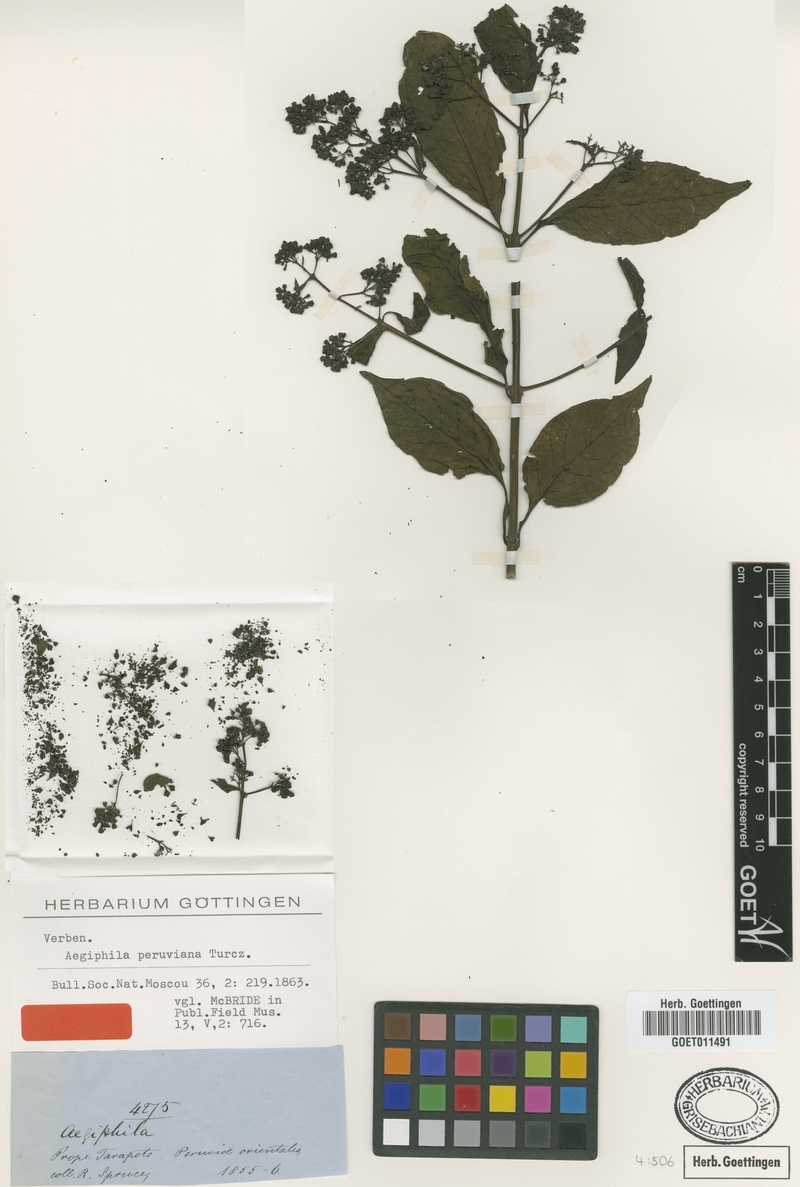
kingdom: Plantae
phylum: Tracheophyta
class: Magnoliopsida
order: Lamiales
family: Lamiaceae
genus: Aegiphila
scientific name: Aegiphila peruviana
